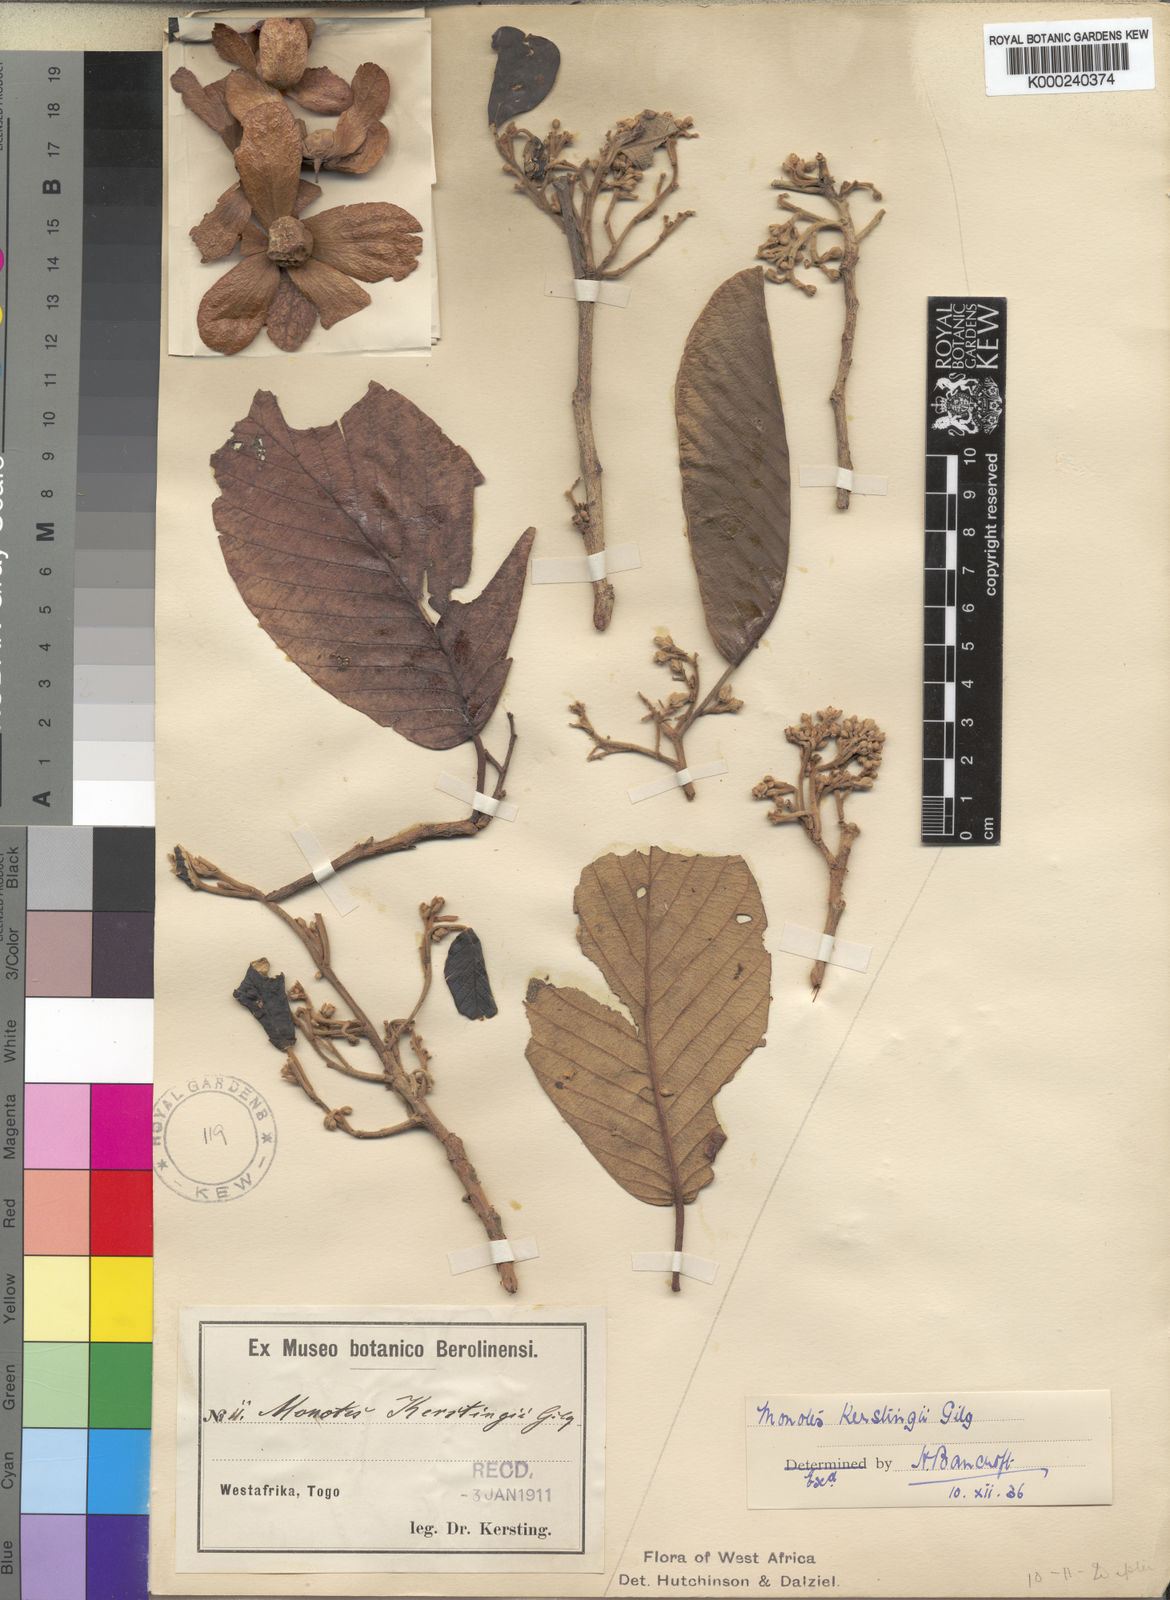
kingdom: Plantae
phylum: Tracheophyta
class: Magnoliopsida
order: Malvales
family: Dipterocarpaceae
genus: Monotes
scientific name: Monotes kerstingii
